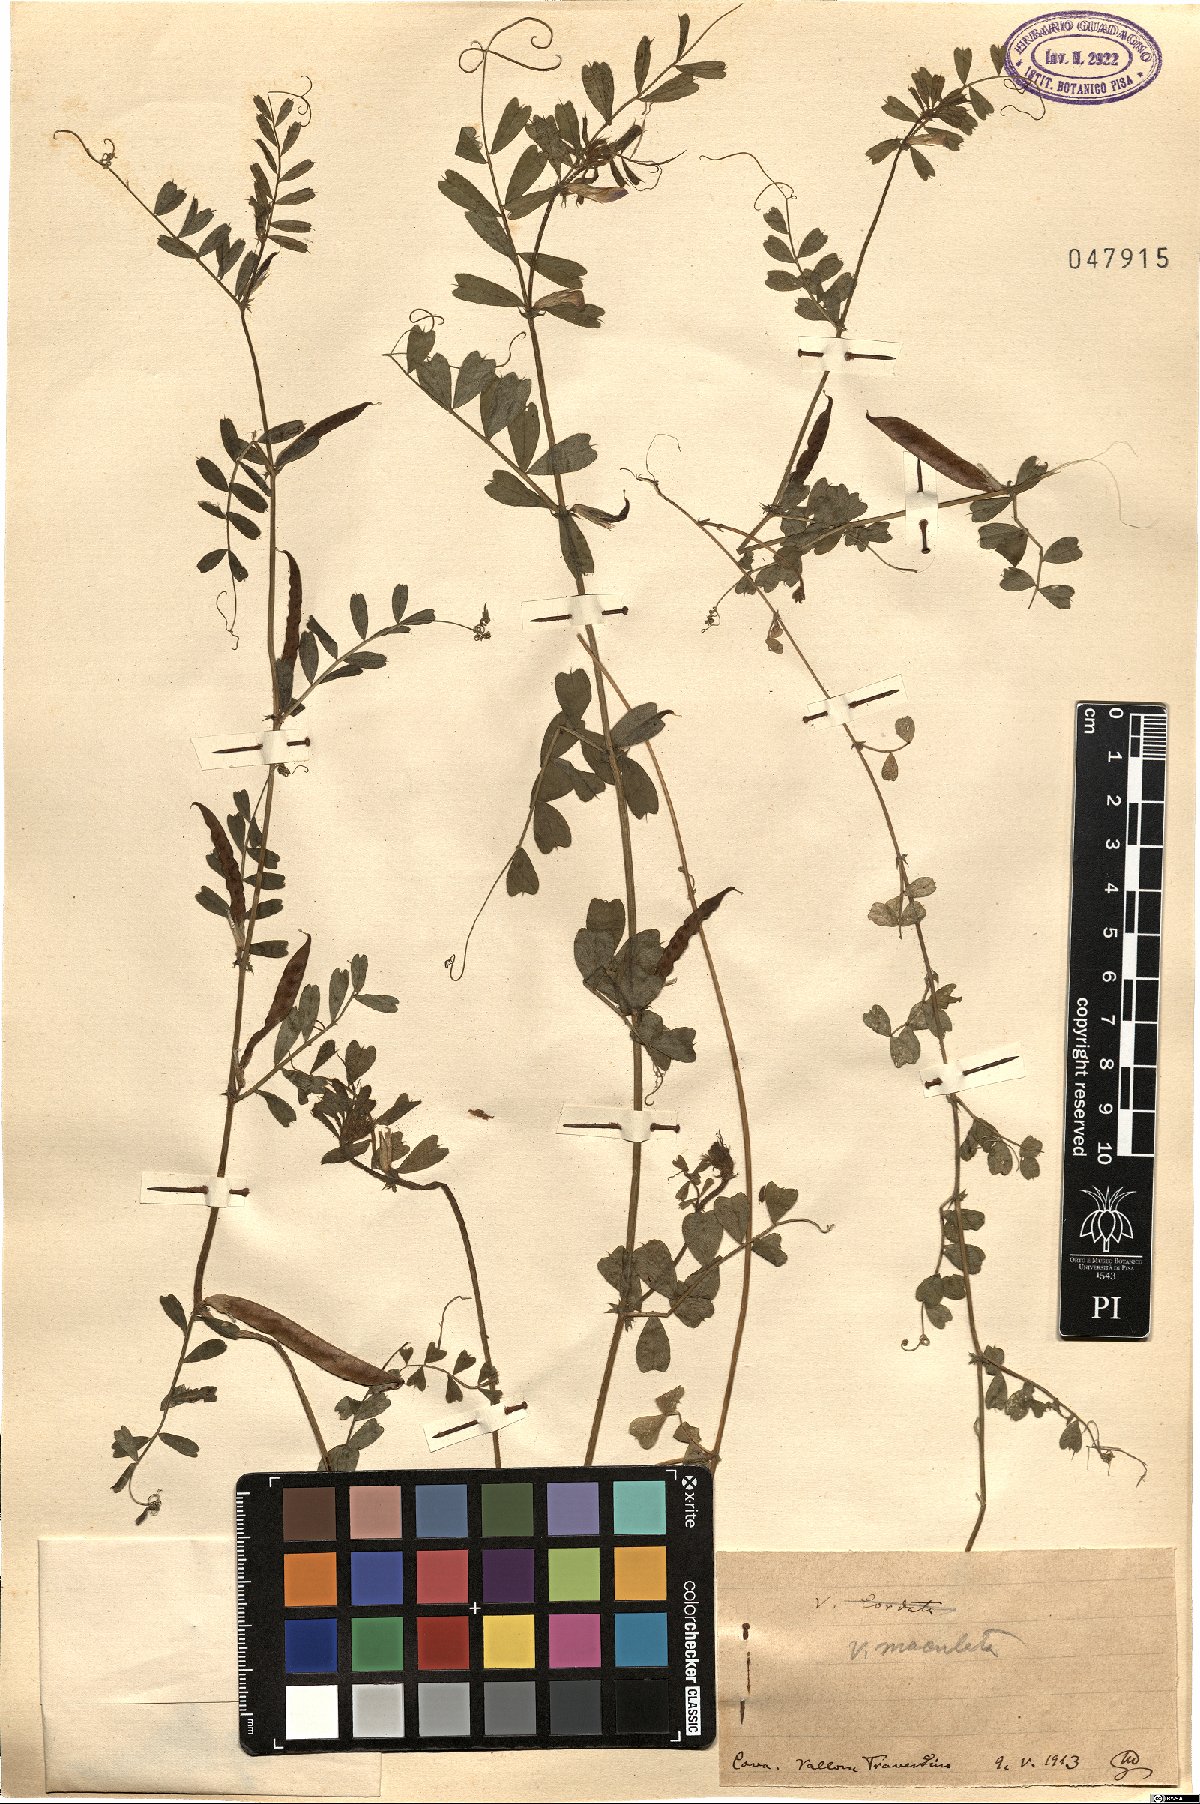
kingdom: Plantae
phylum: Tracheophyta
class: Magnoliopsida
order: Fabales
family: Fabaceae
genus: Vicia
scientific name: Vicia sativa
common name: Garden vetch
